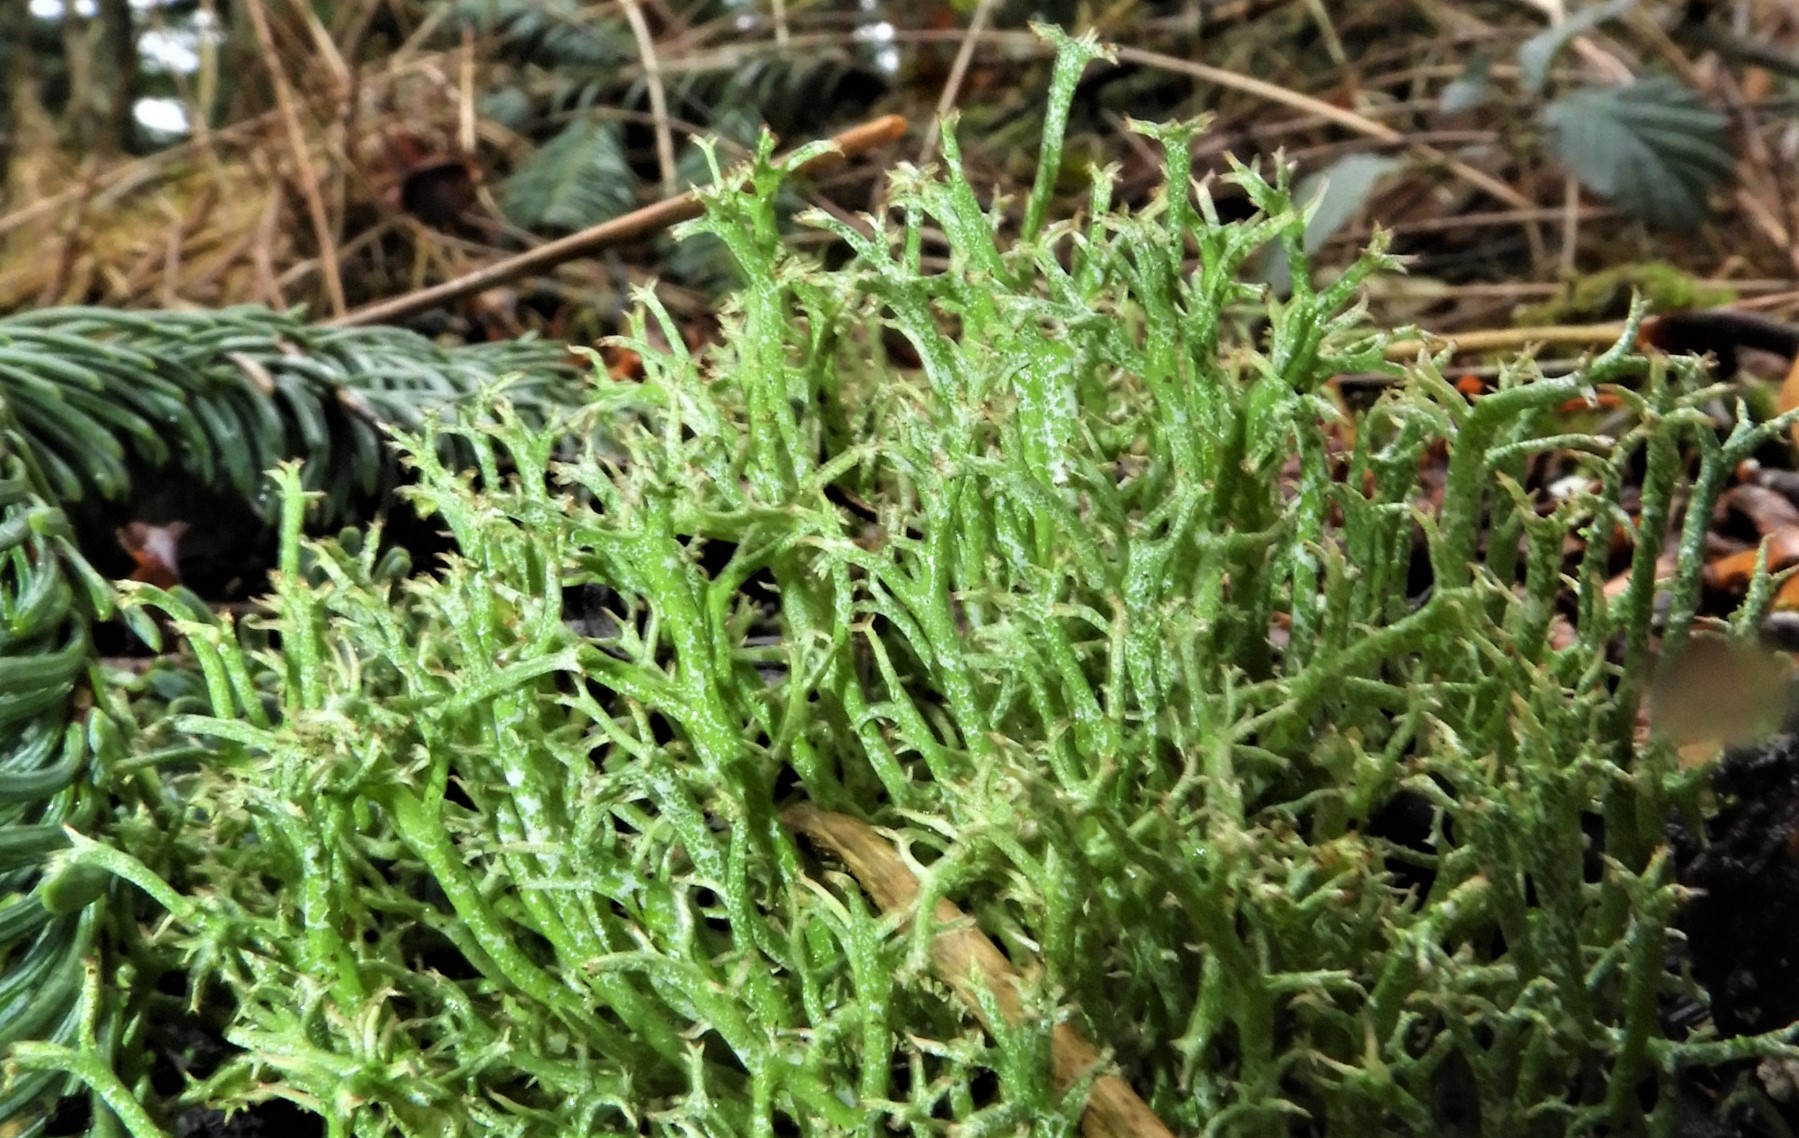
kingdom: Fungi
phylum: Ascomycota
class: Lecanoromycetes
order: Lecanorales
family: Cladoniaceae
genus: Cladonia
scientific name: Cladonia rangiformis
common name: spættet bægerlav
